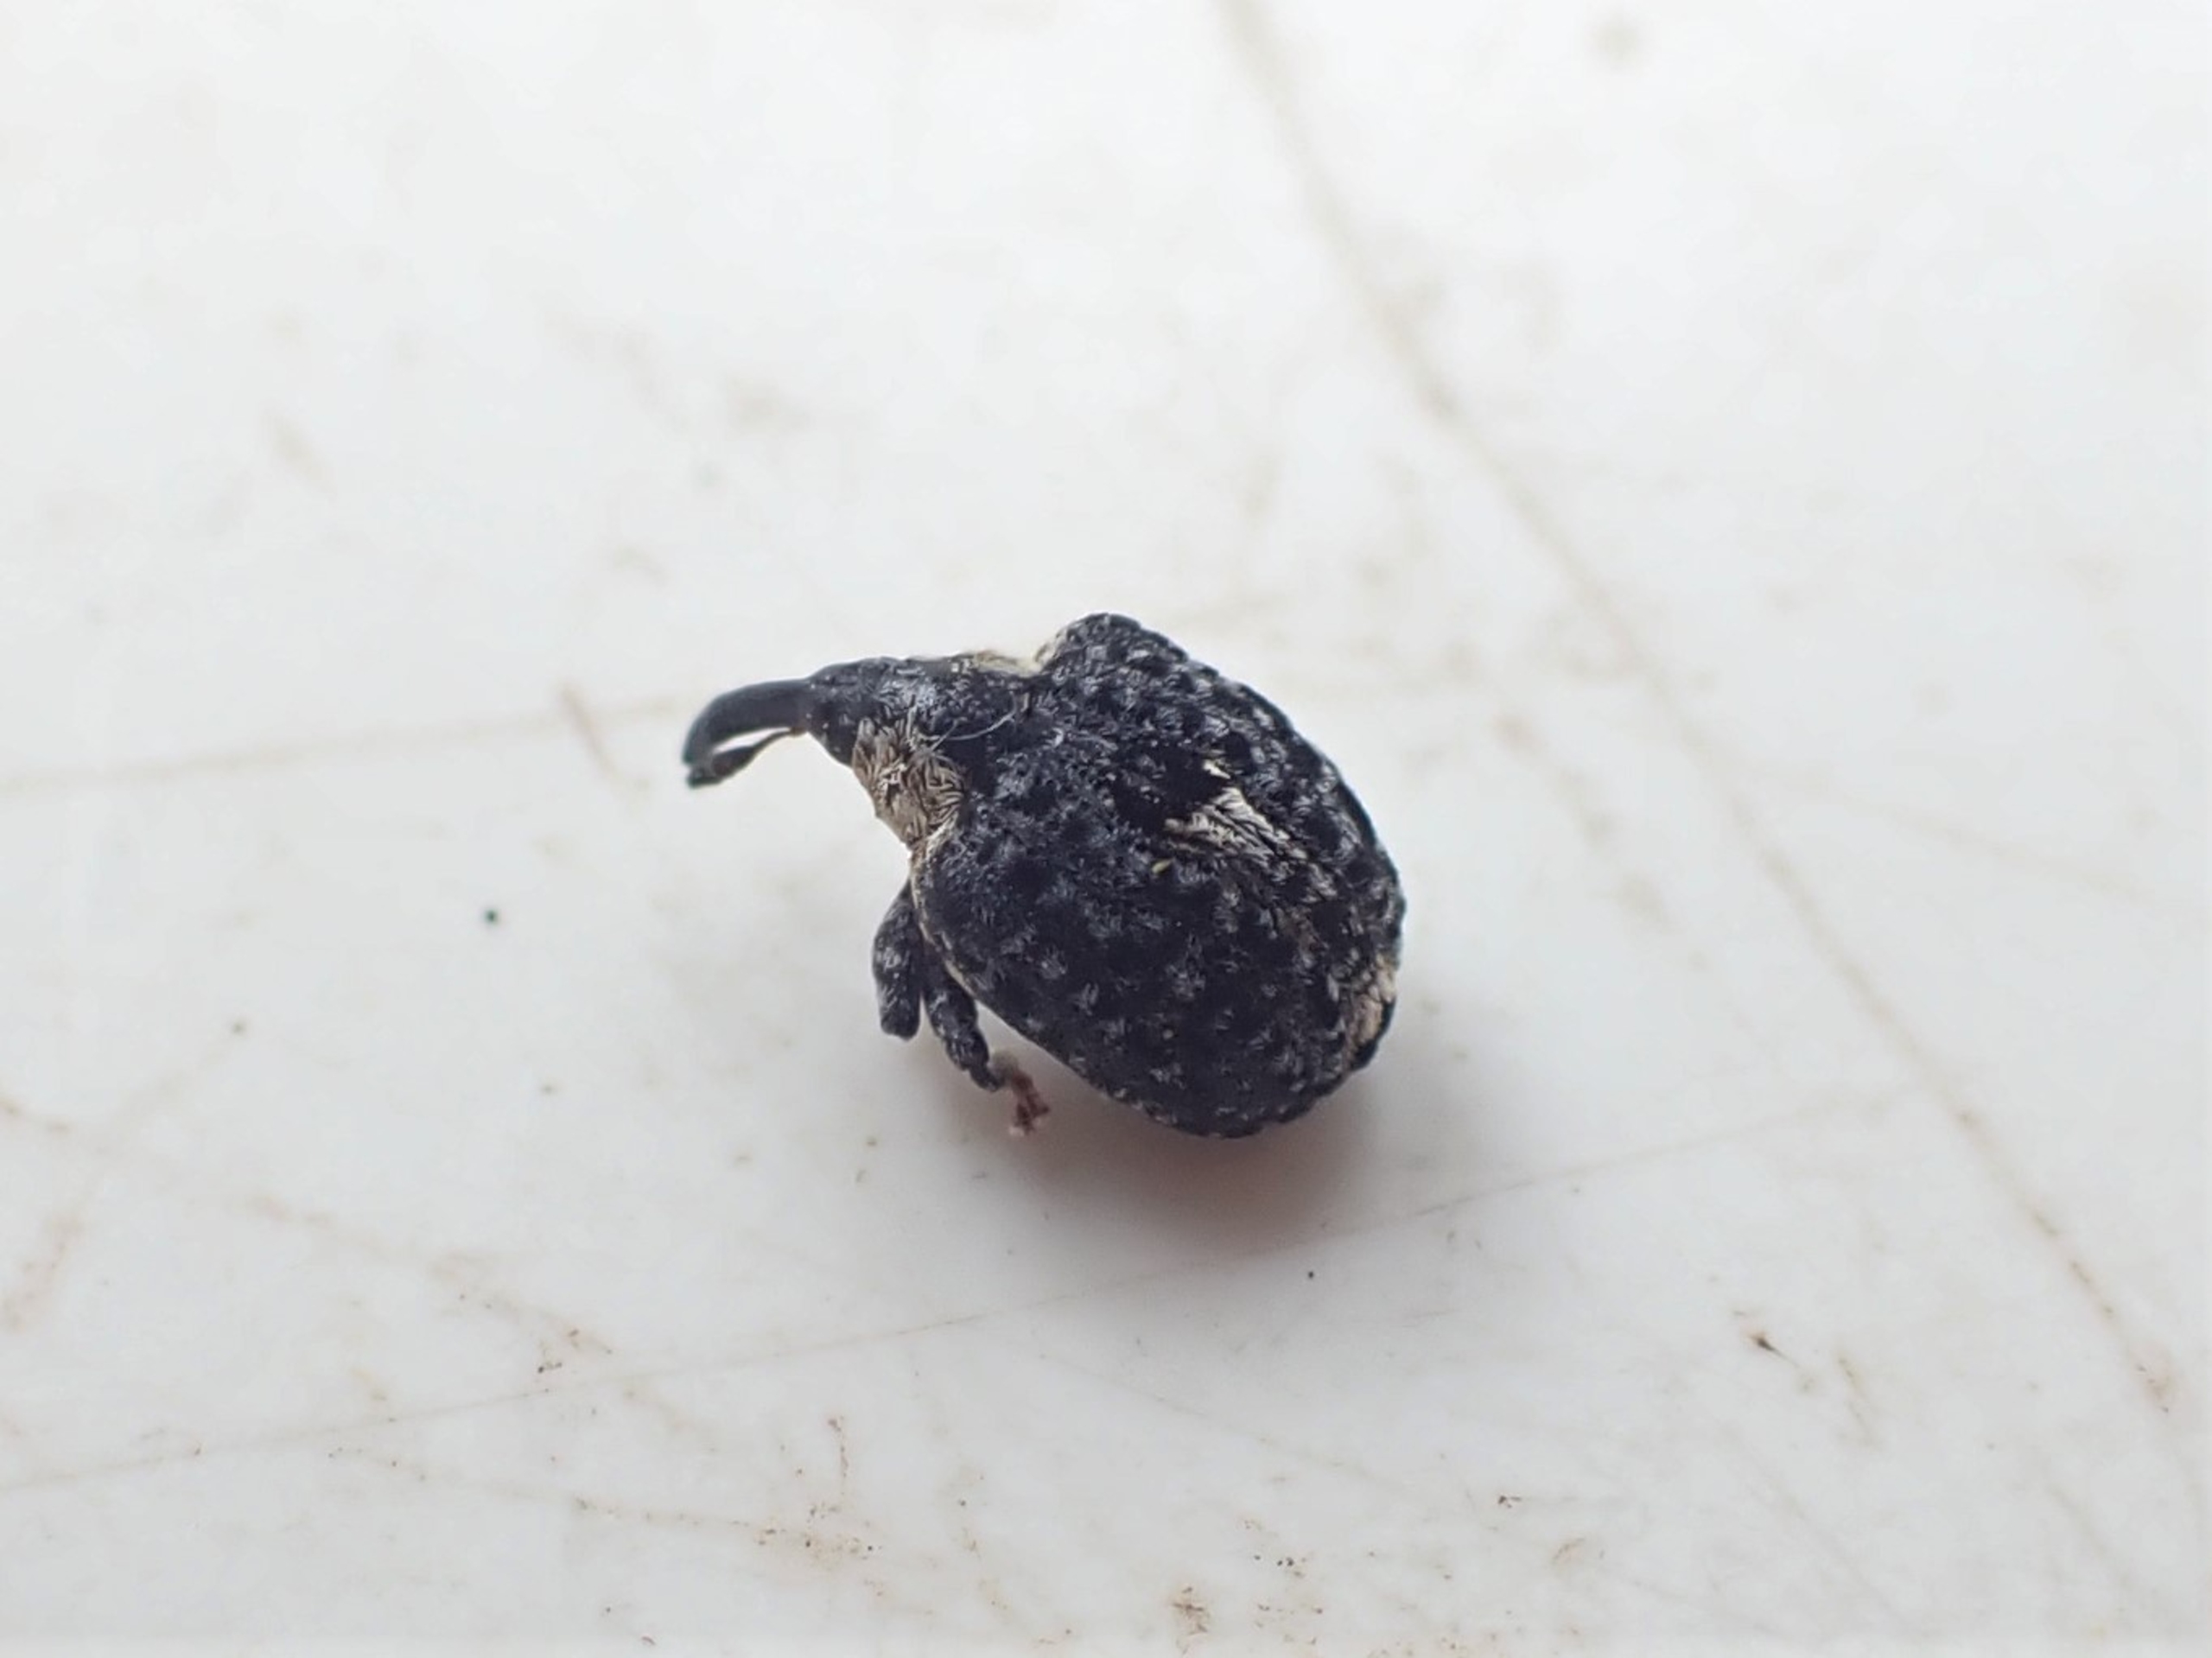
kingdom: Animalia
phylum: Arthropoda
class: Insecta
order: Coleoptera
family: Curculionidae
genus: Cionus
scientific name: Cionus tuberculosus
